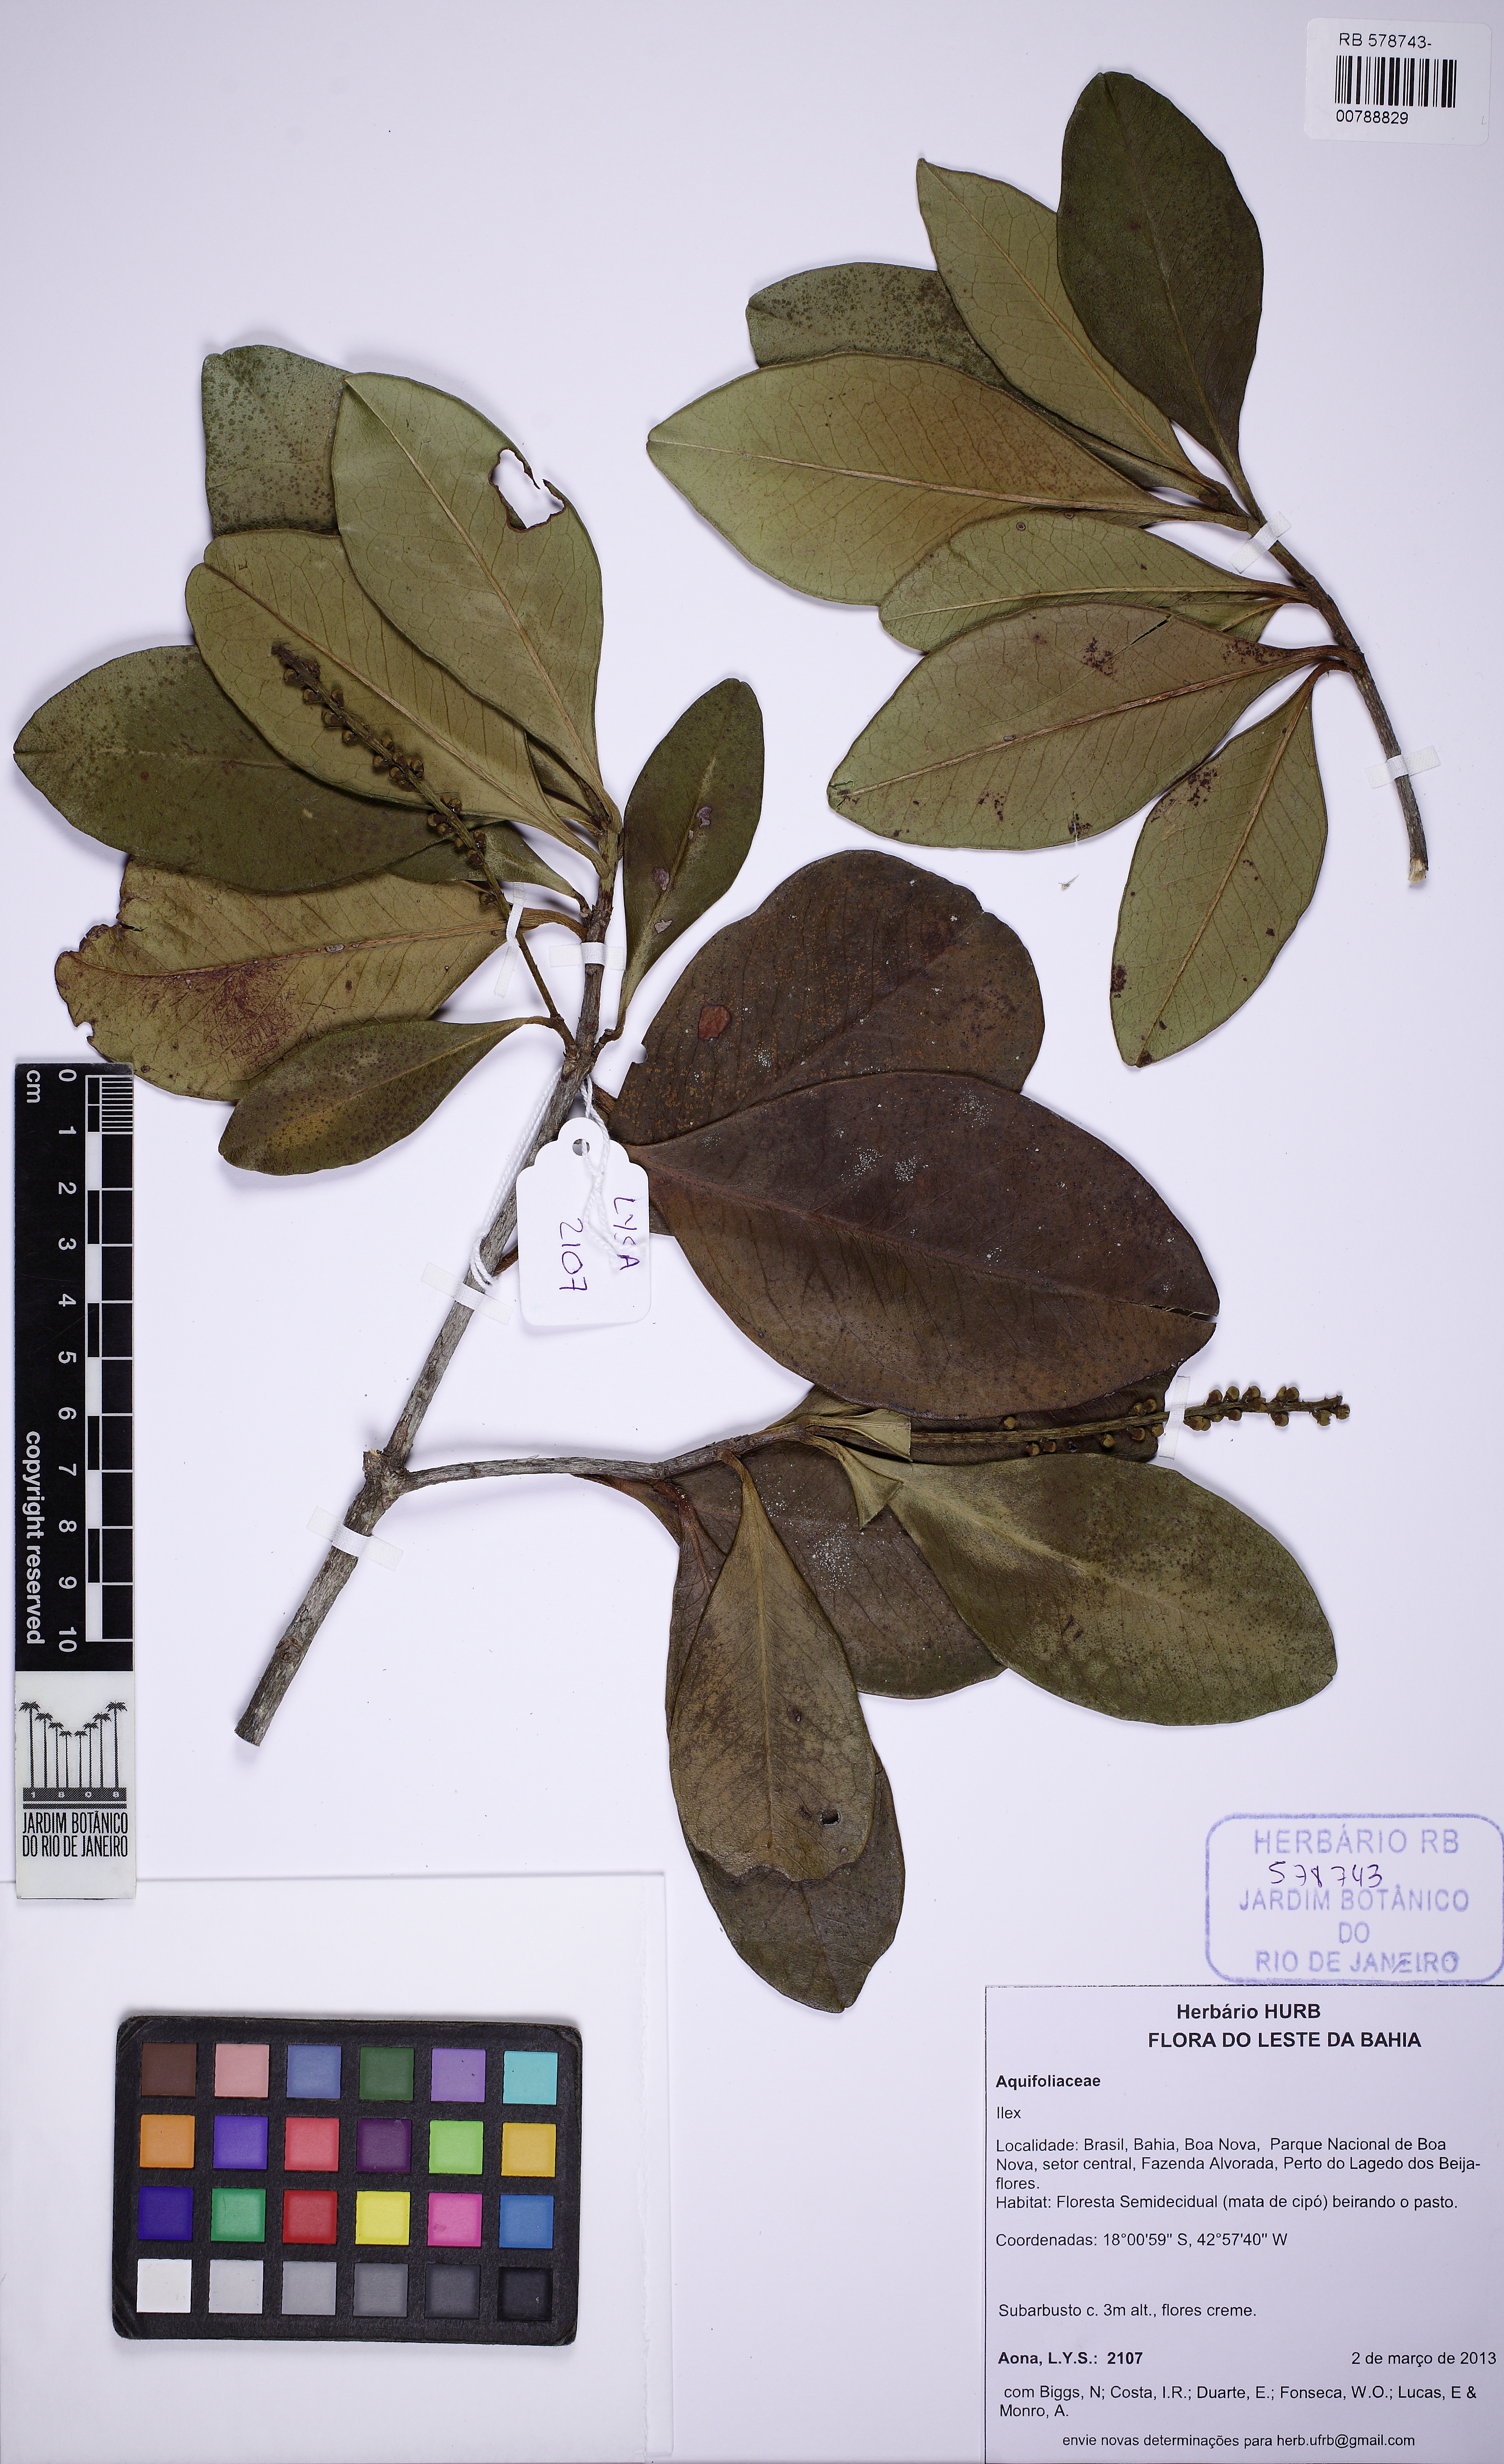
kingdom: Plantae
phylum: Tracheophyta
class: Magnoliopsida
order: Aquifoliales
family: Aquifoliaceae
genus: Ilex
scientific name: Ilex
